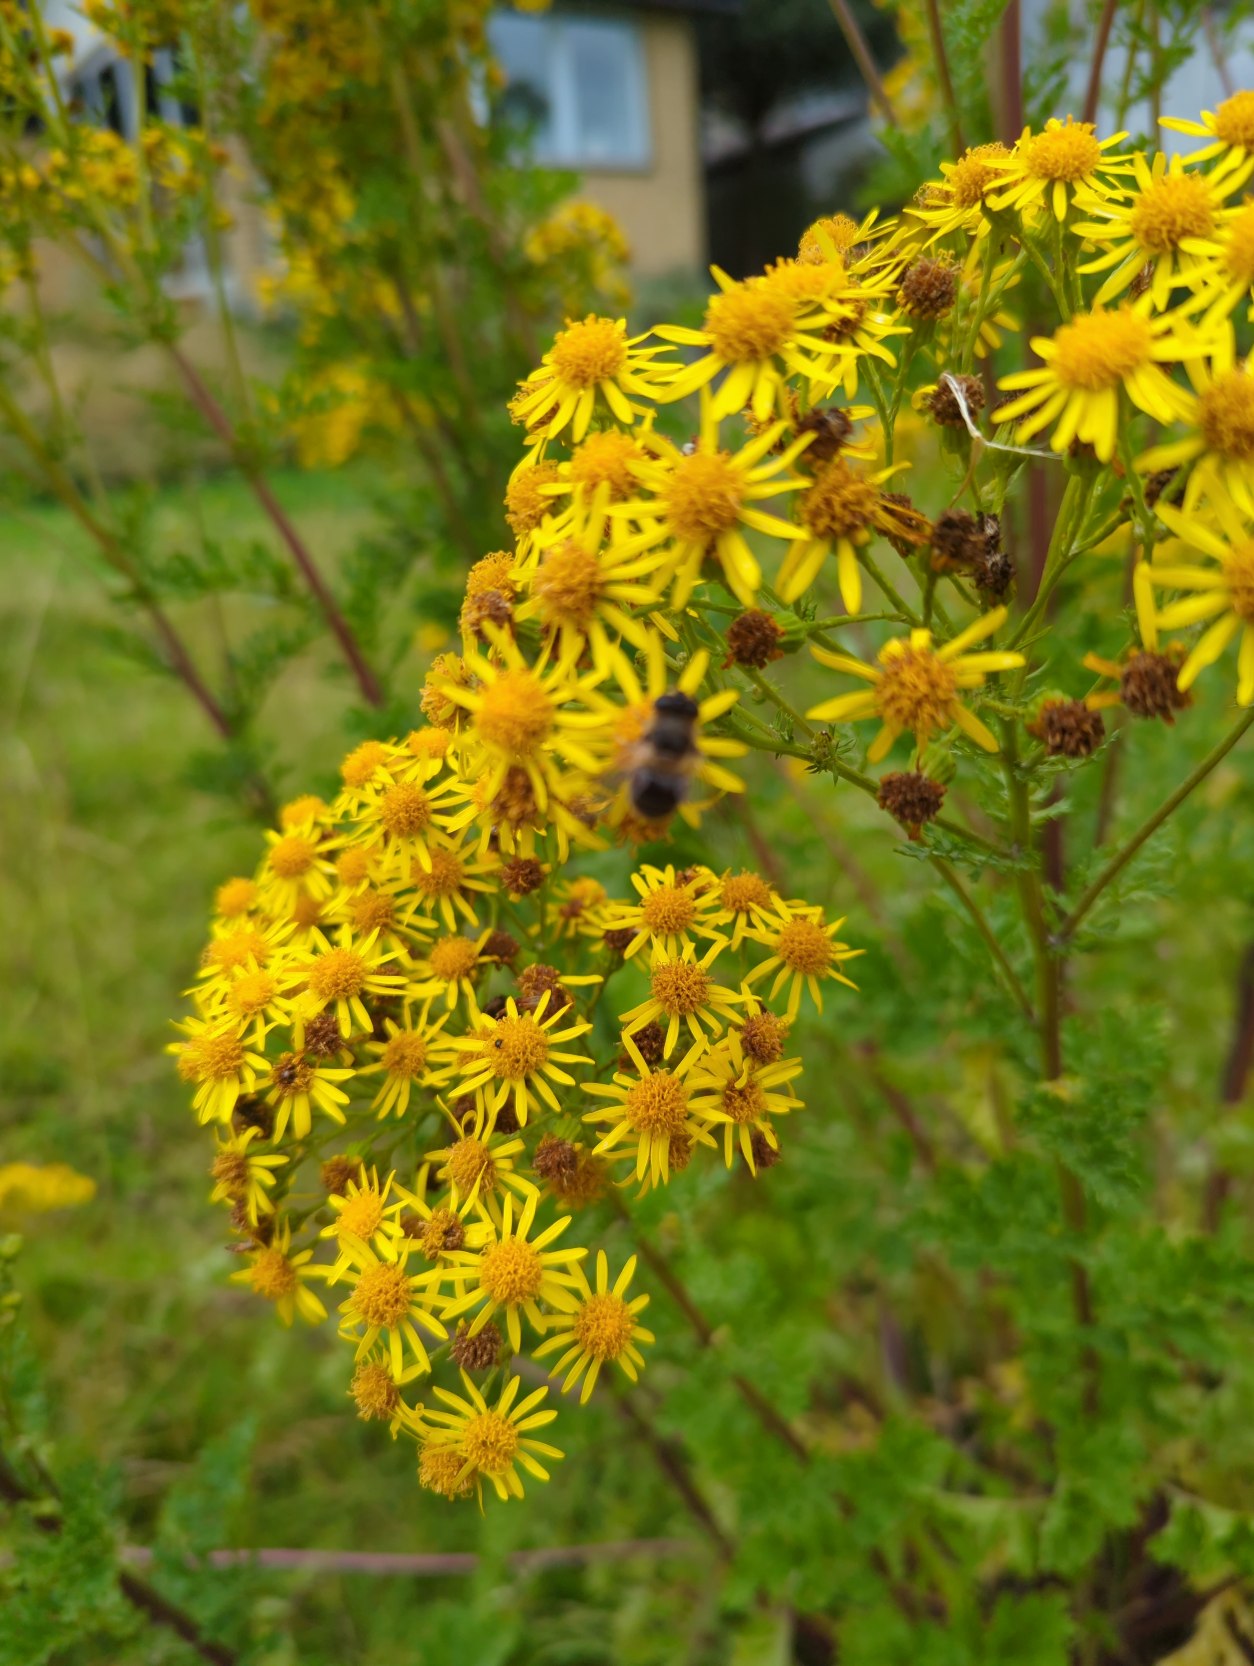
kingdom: Plantae
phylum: Tracheophyta
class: Magnoliopsida
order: Asterales
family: Asteraceae
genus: Jacobaea
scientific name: Jacobaea vulgaris
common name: Eng-brandbæger
